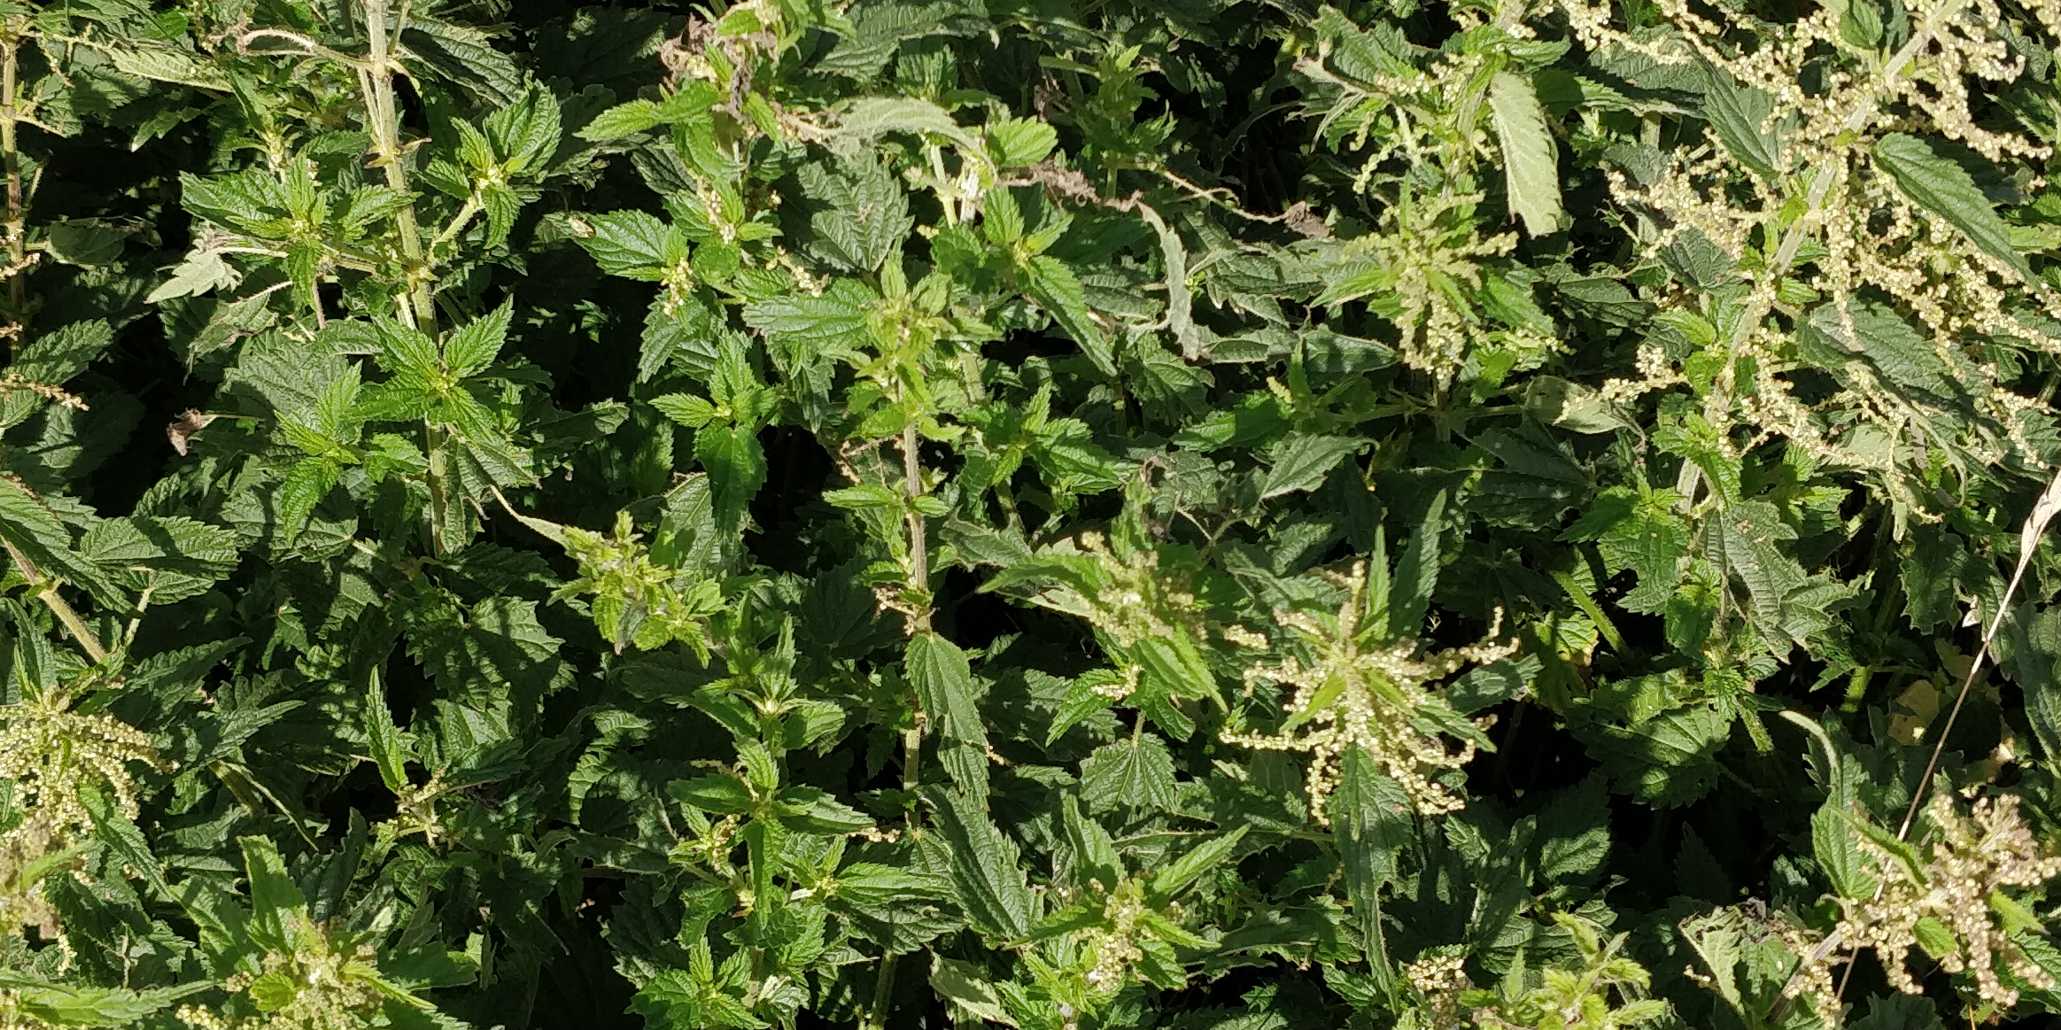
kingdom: Plantae
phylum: Tracheophyta
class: Magnoliopsida
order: Rosales
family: Urticaceae
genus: Urtica
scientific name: Urtica dioica
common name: Stor nælde
